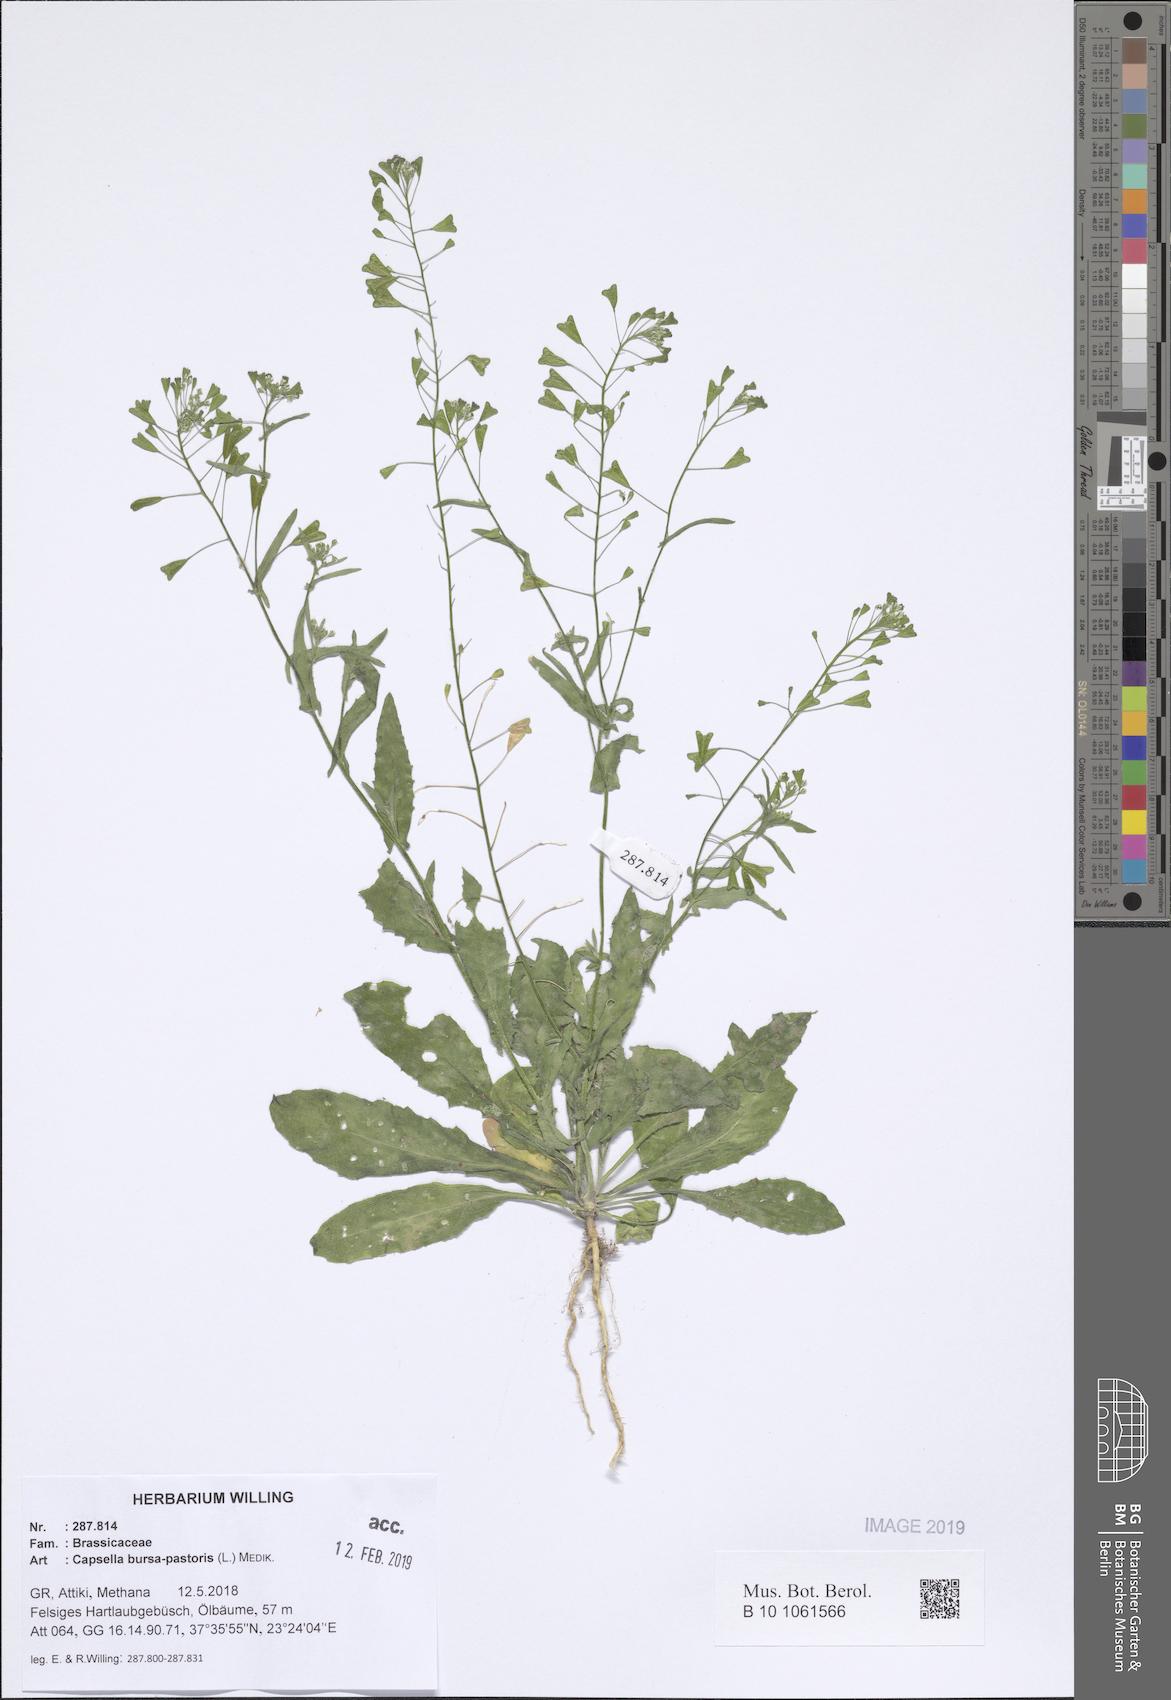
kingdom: Plantae
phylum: Tracheophyta
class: Magnoliopsida
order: Brassicales
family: Brassicaceae
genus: Capsella
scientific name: Capsella bursa-pastoris
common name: Shepherd's purse
